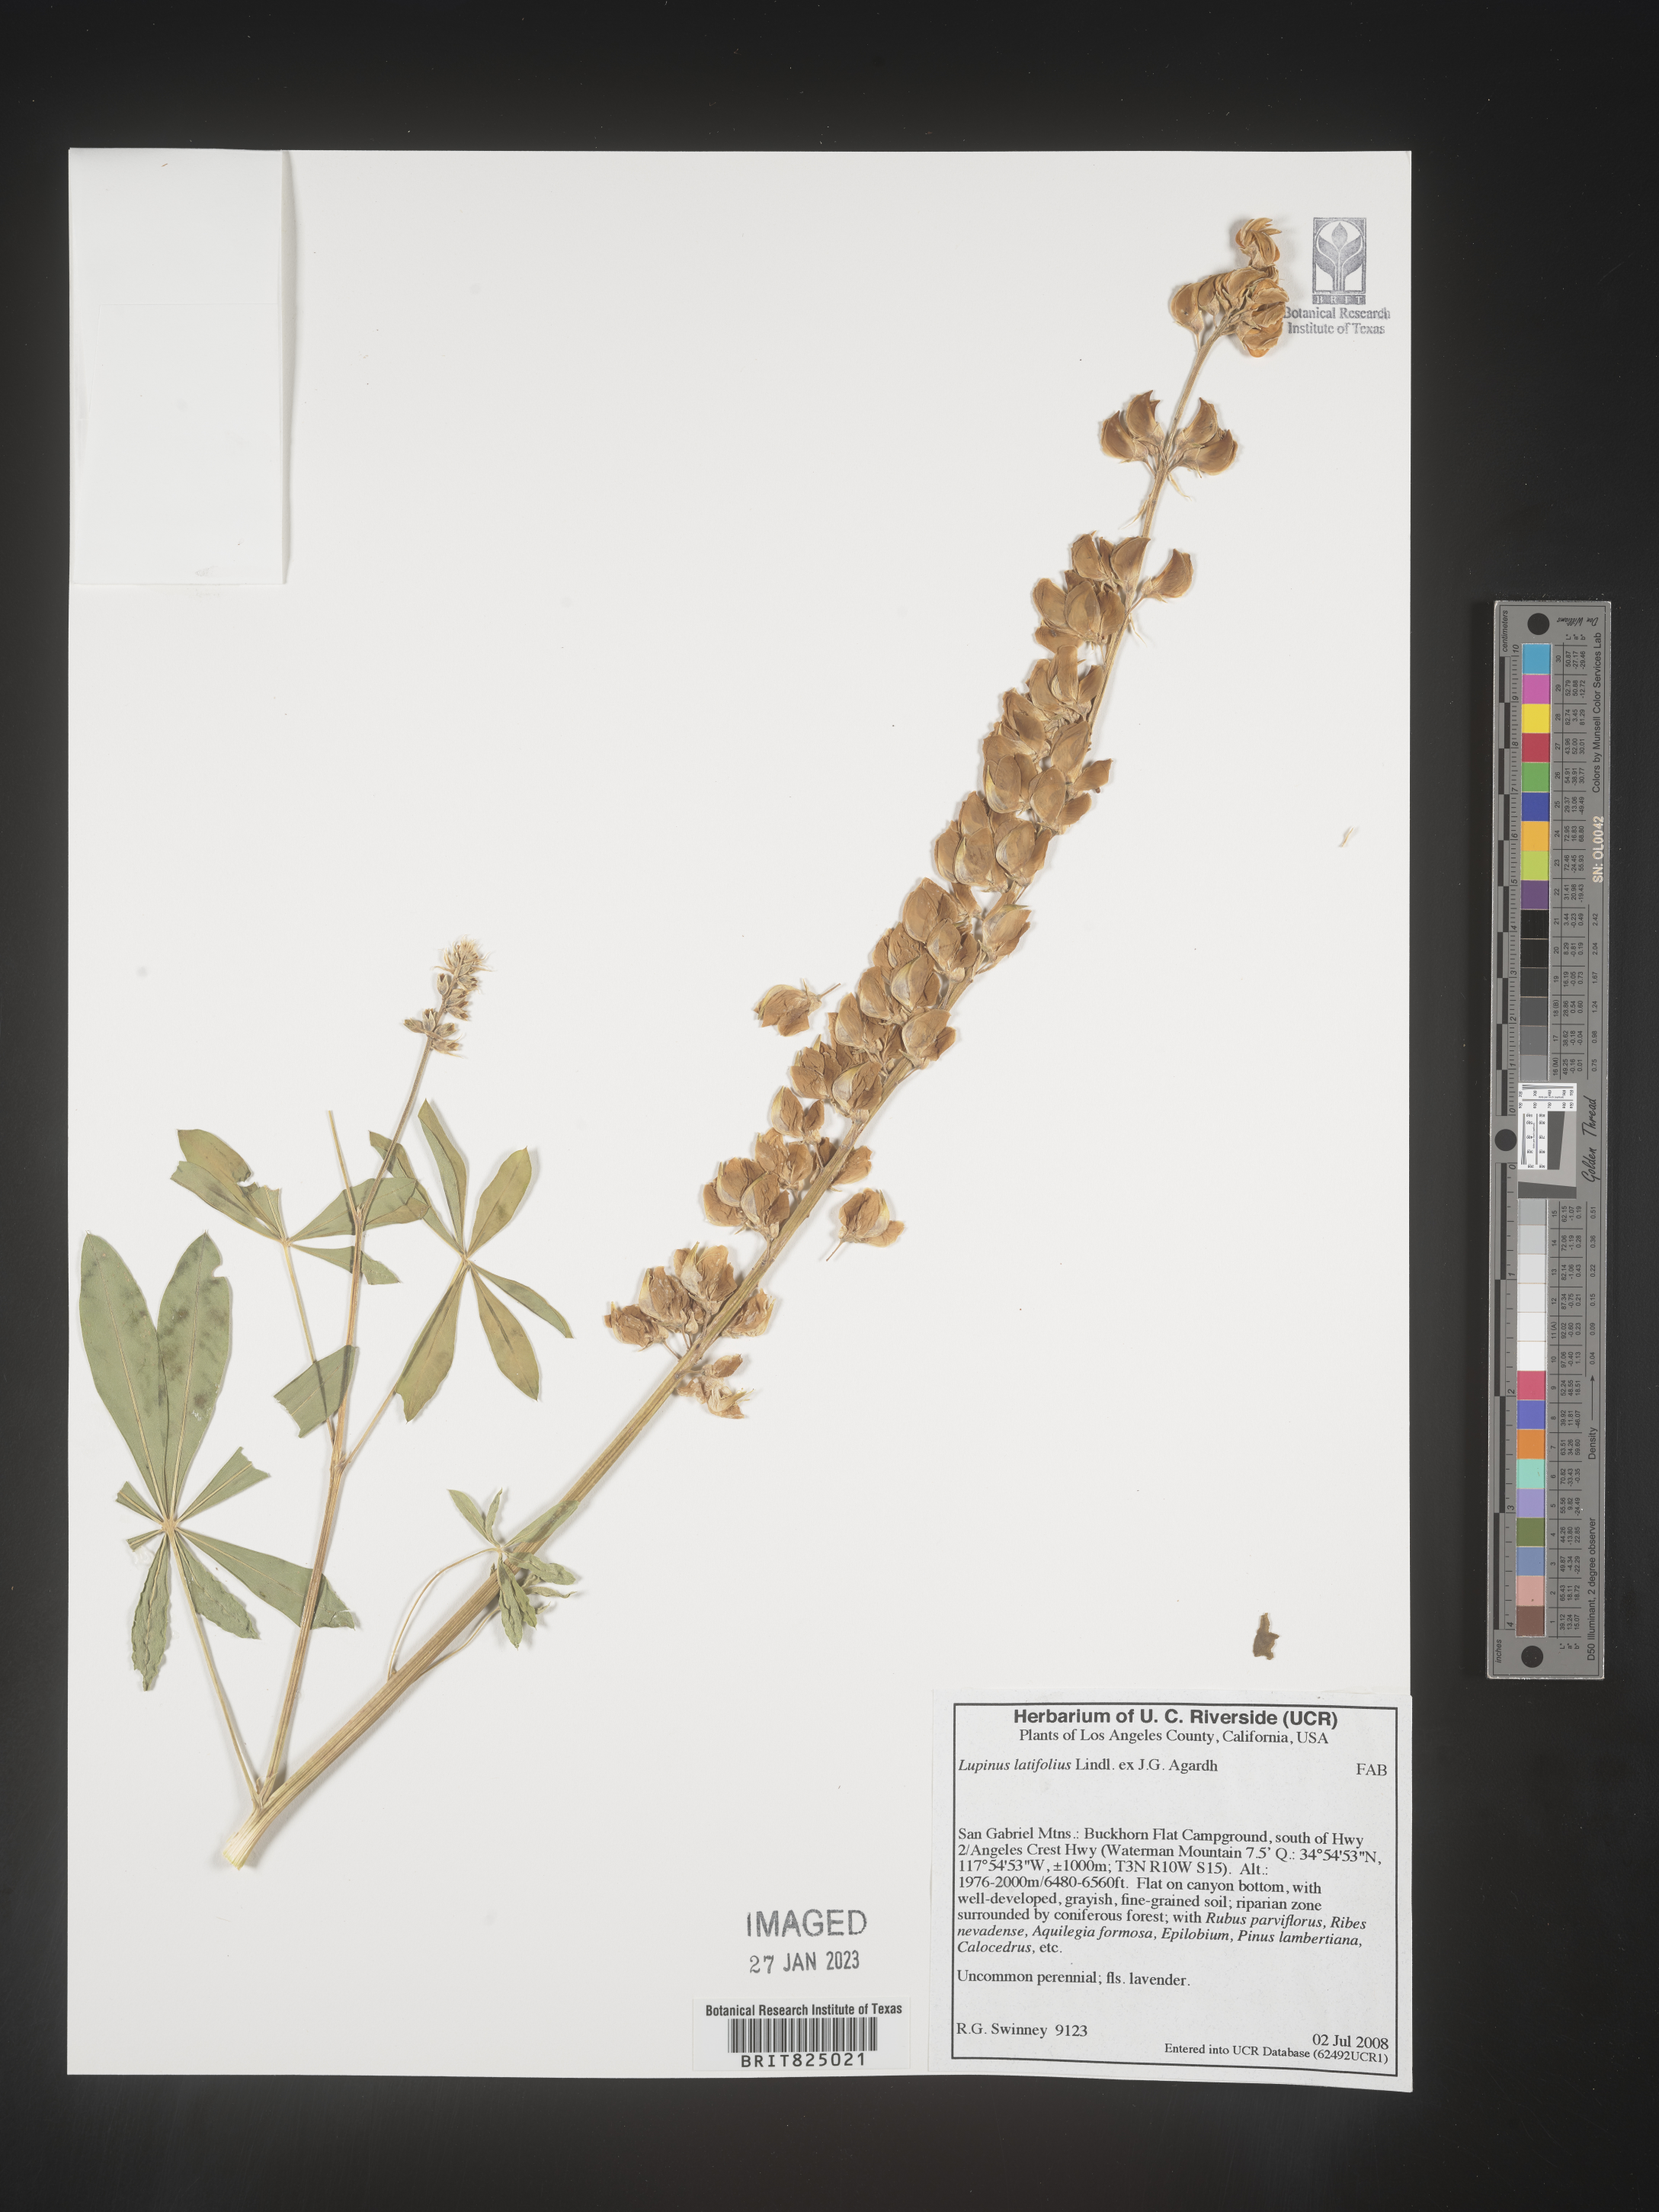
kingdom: Plantae
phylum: Tracheophyta
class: Magnoliopsida
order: Fabales
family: Fabaceae
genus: Lupinus
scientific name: Lupinus
